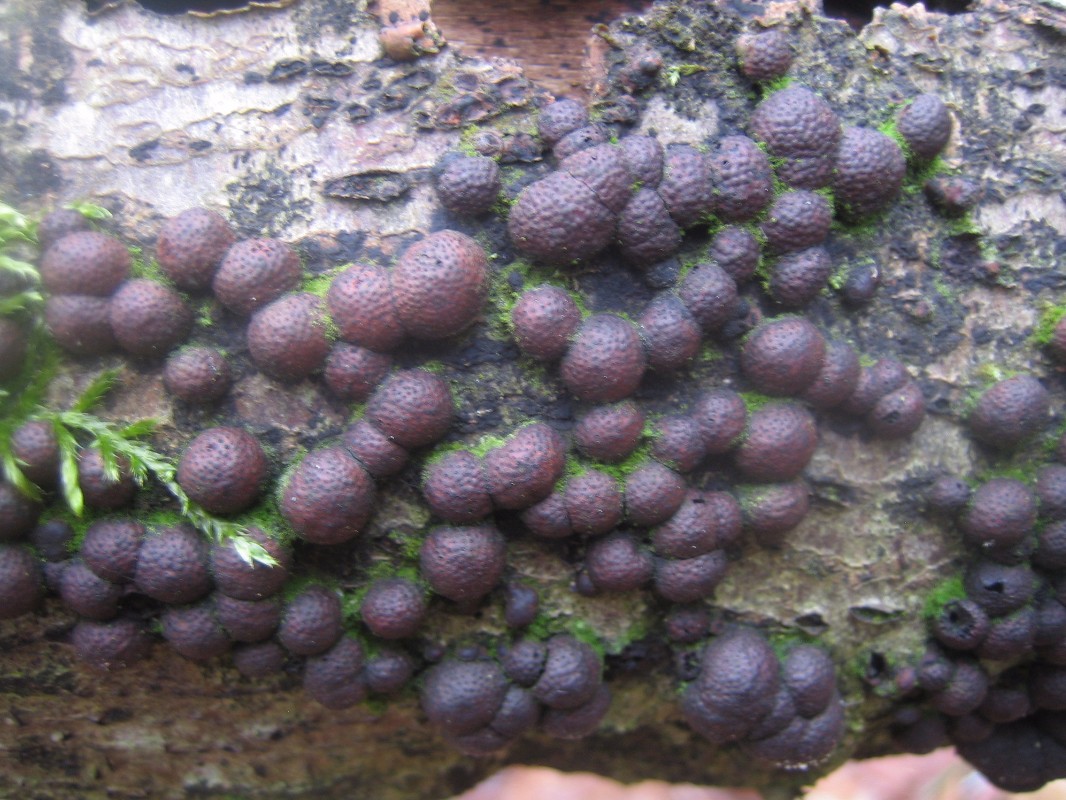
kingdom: Fungi
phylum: Ascomycota
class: Sordariomycetes
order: Xylariales
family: Hypoxylaceae
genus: Hypoxylon
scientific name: Hypoxylon fragiforme
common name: kuljordbær
